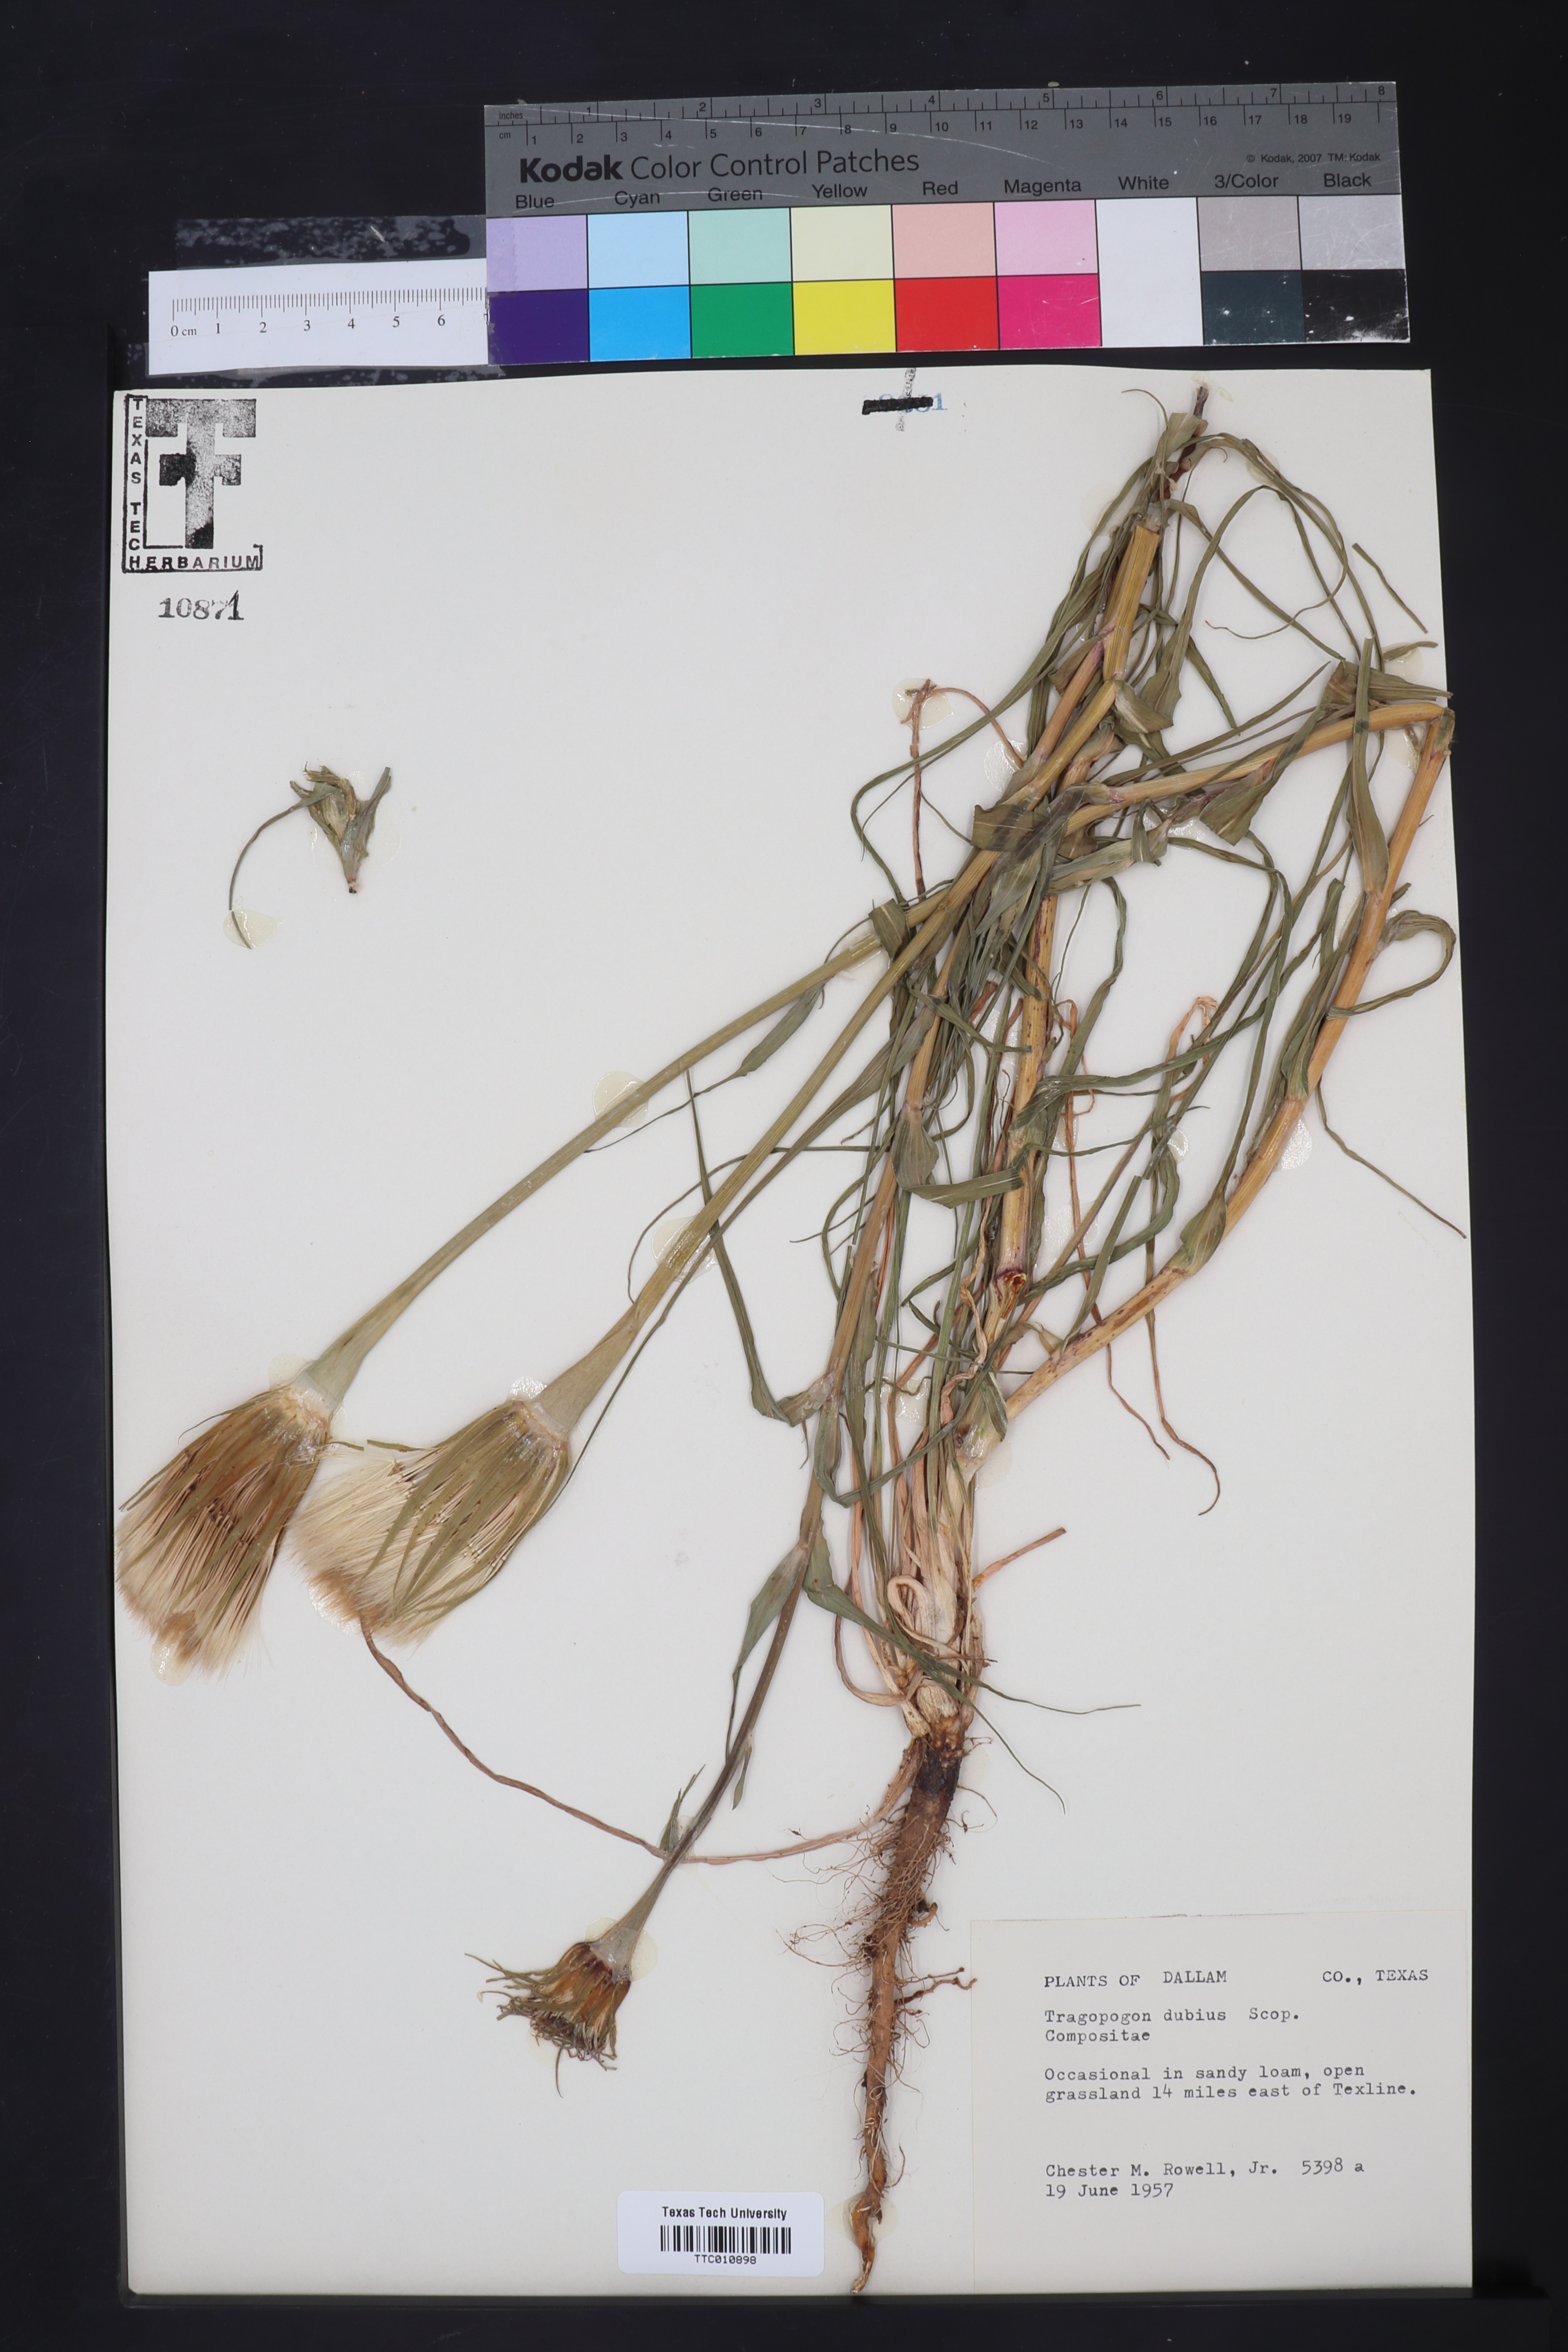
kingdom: Plantae
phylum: Tracheophyta
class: Magnoliopsida
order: Asterales
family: Asteraceae
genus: Tragopogon
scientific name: Tragopogon dubius
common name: Yellow salsify
